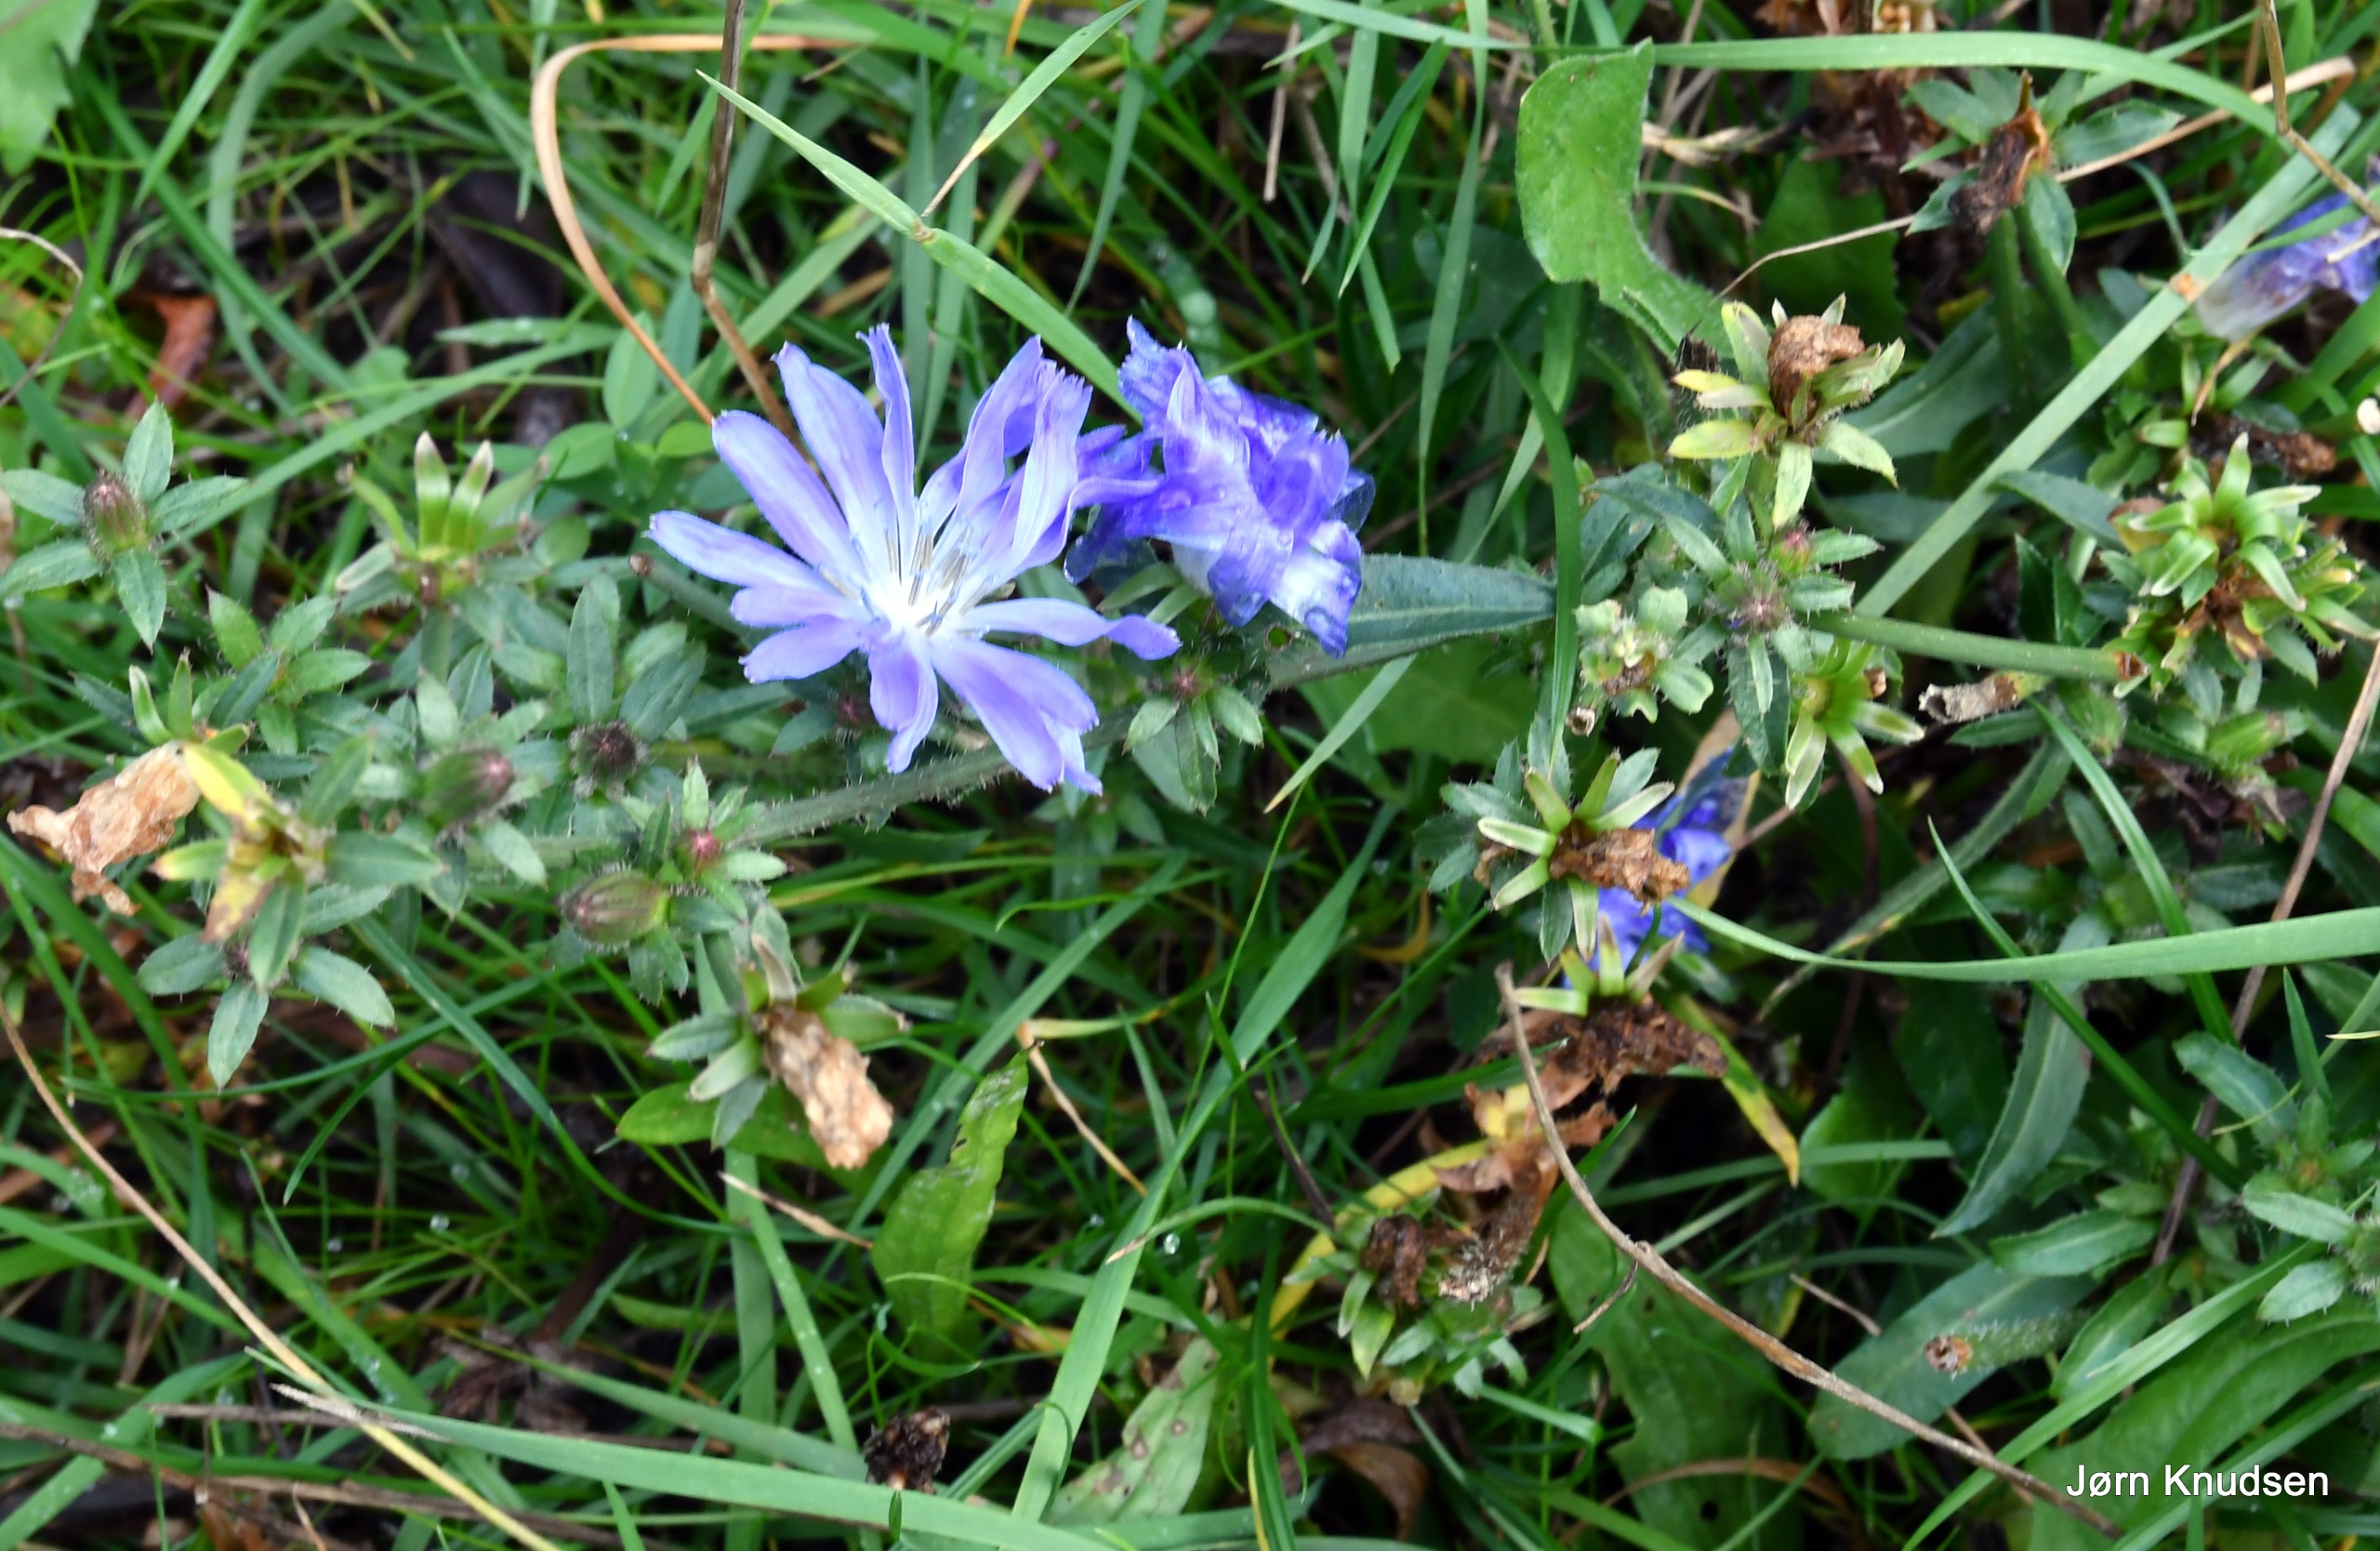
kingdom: Plantae
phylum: Tracheophyta
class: Magnoliopsida
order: Asterales
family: Asteraceae
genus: Cichorium
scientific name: Cichorium intybus
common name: Cikorie
